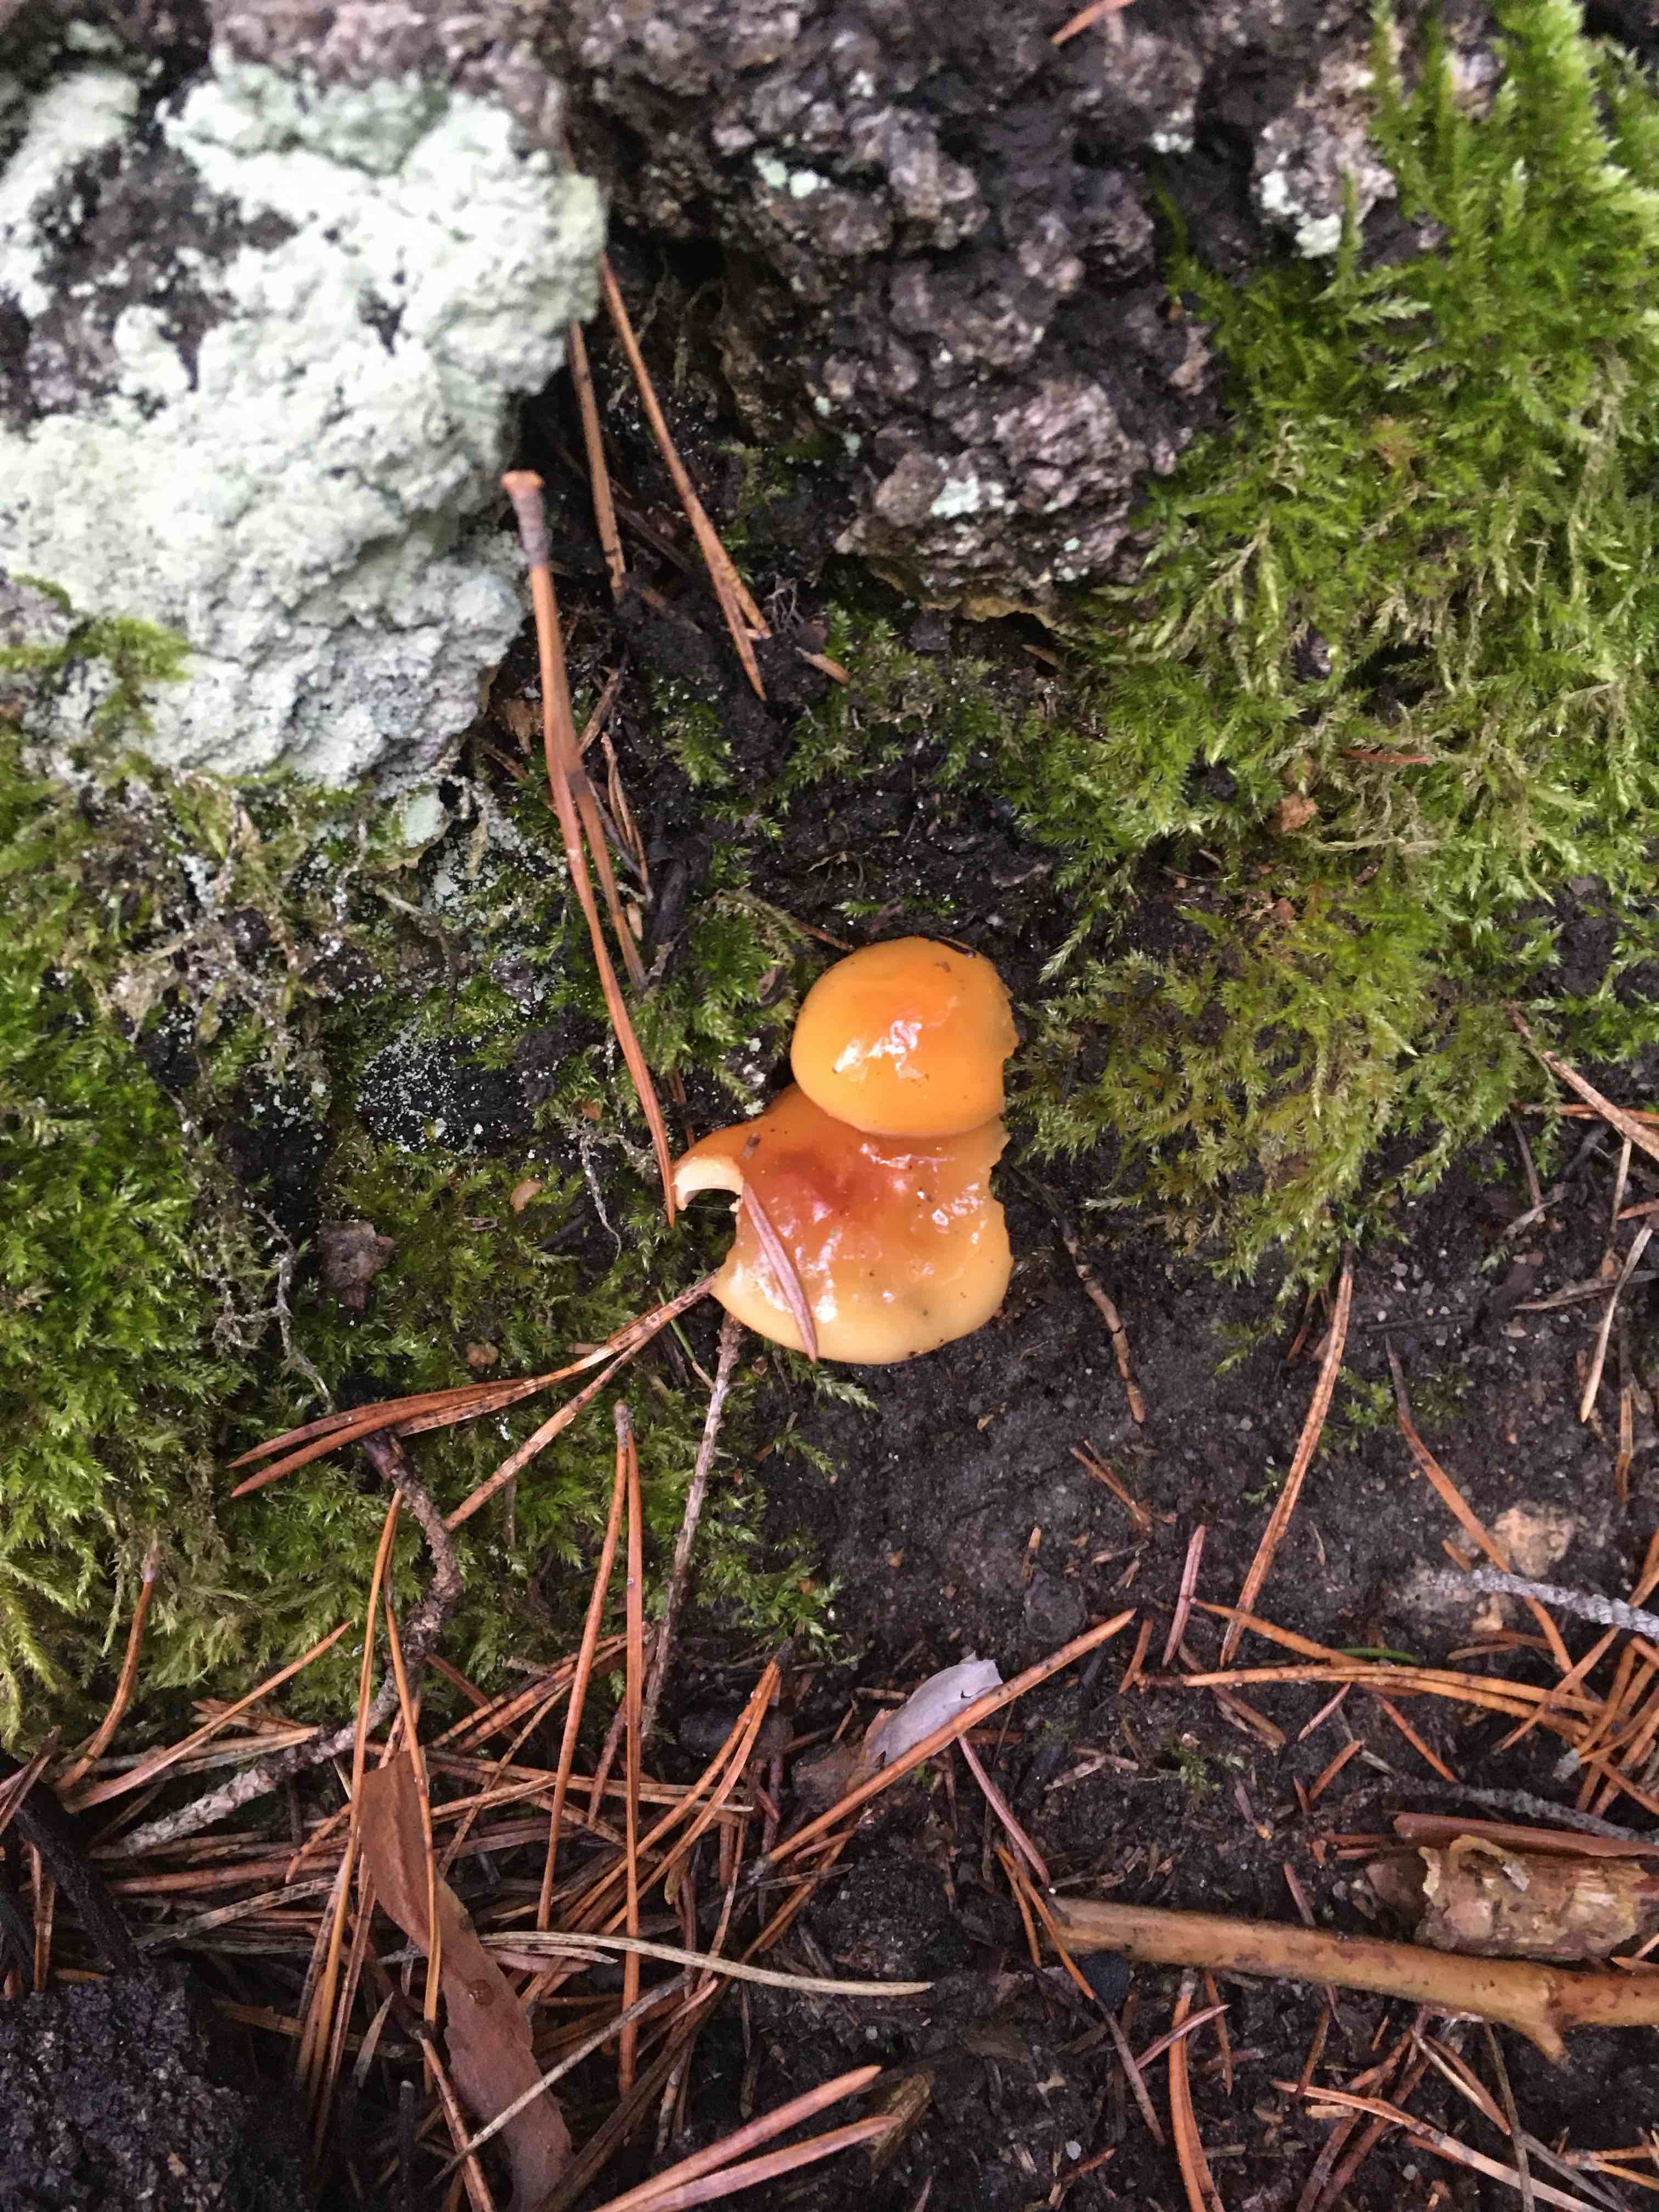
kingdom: Fungi
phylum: Basidiomycota
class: Agaricomycetes
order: Agaricales
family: Physalacriaceae
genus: Flammulina
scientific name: Flammulina
